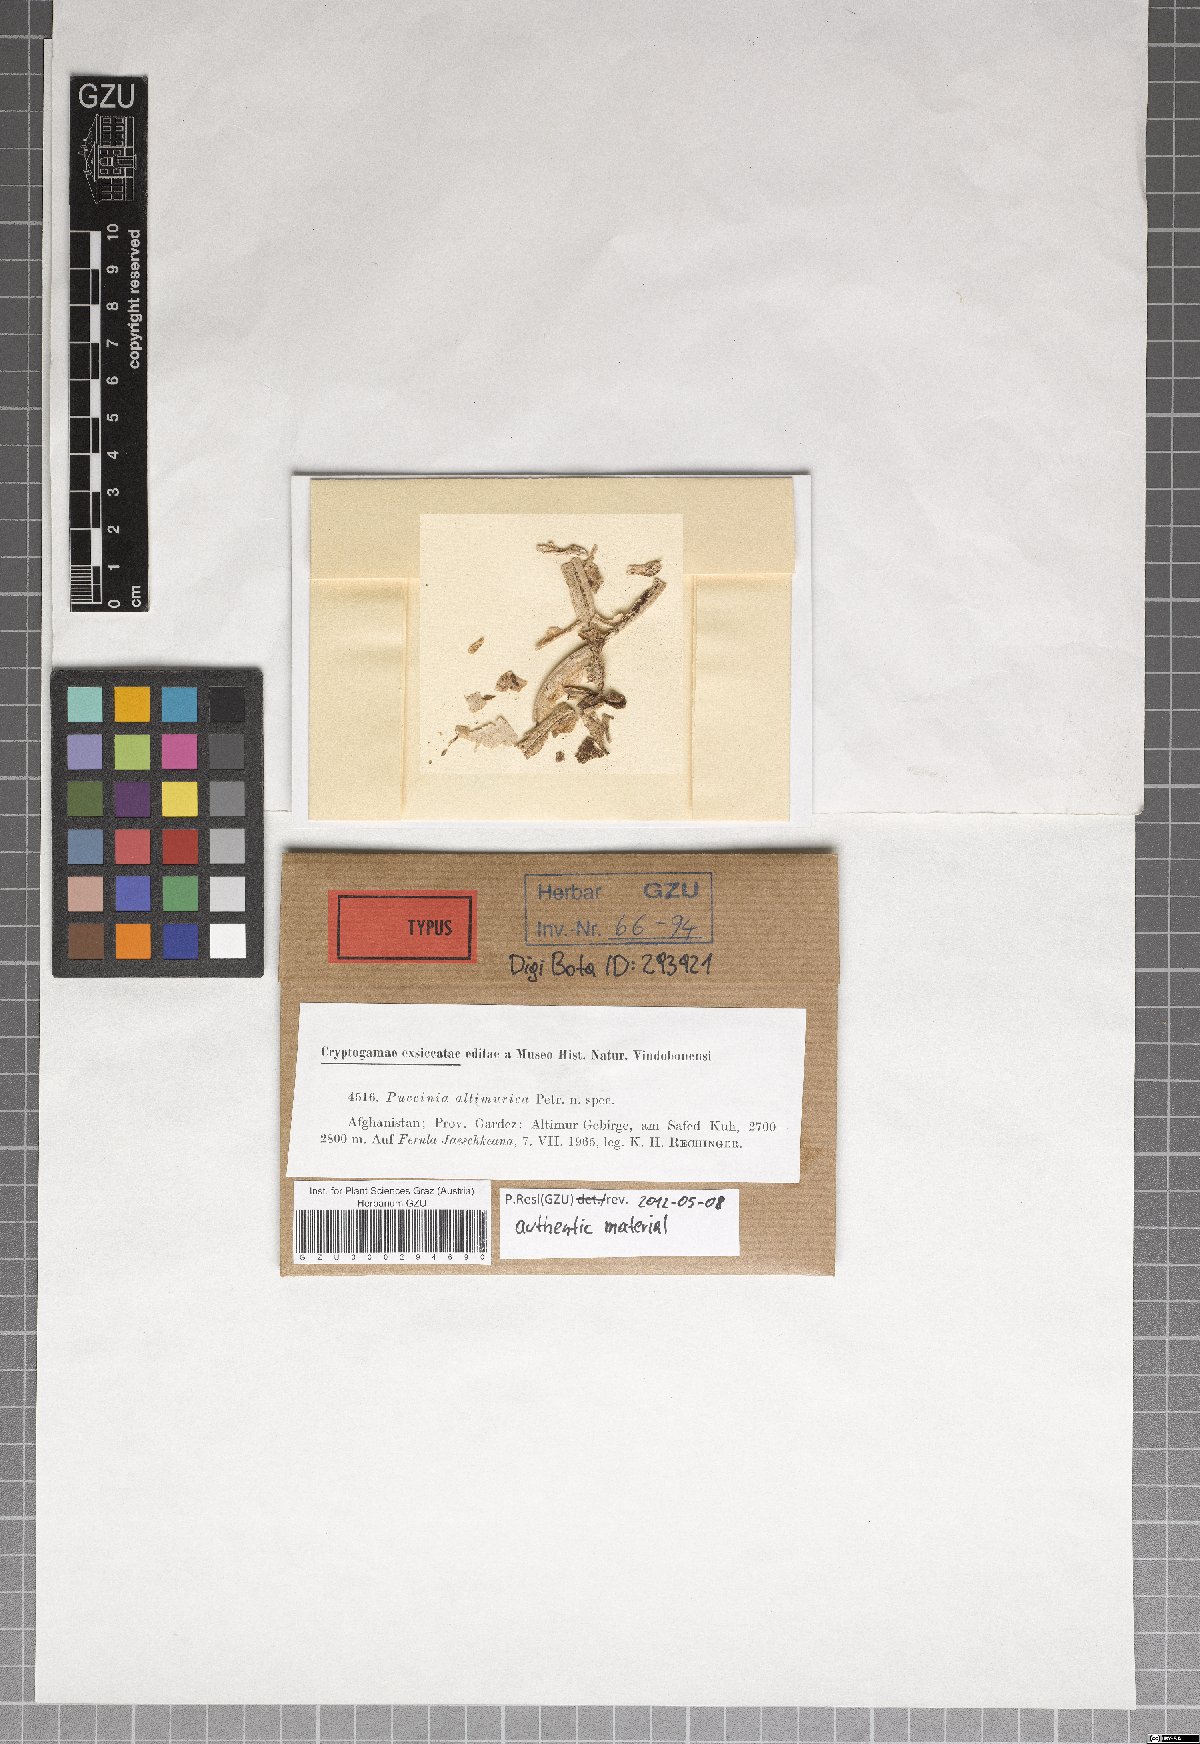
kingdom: Fungi
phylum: Basidiomycota
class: Pucciniomycetes
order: Pucciniales
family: Pucciniaceae
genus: Puccinia
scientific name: Puccinia altimurica
